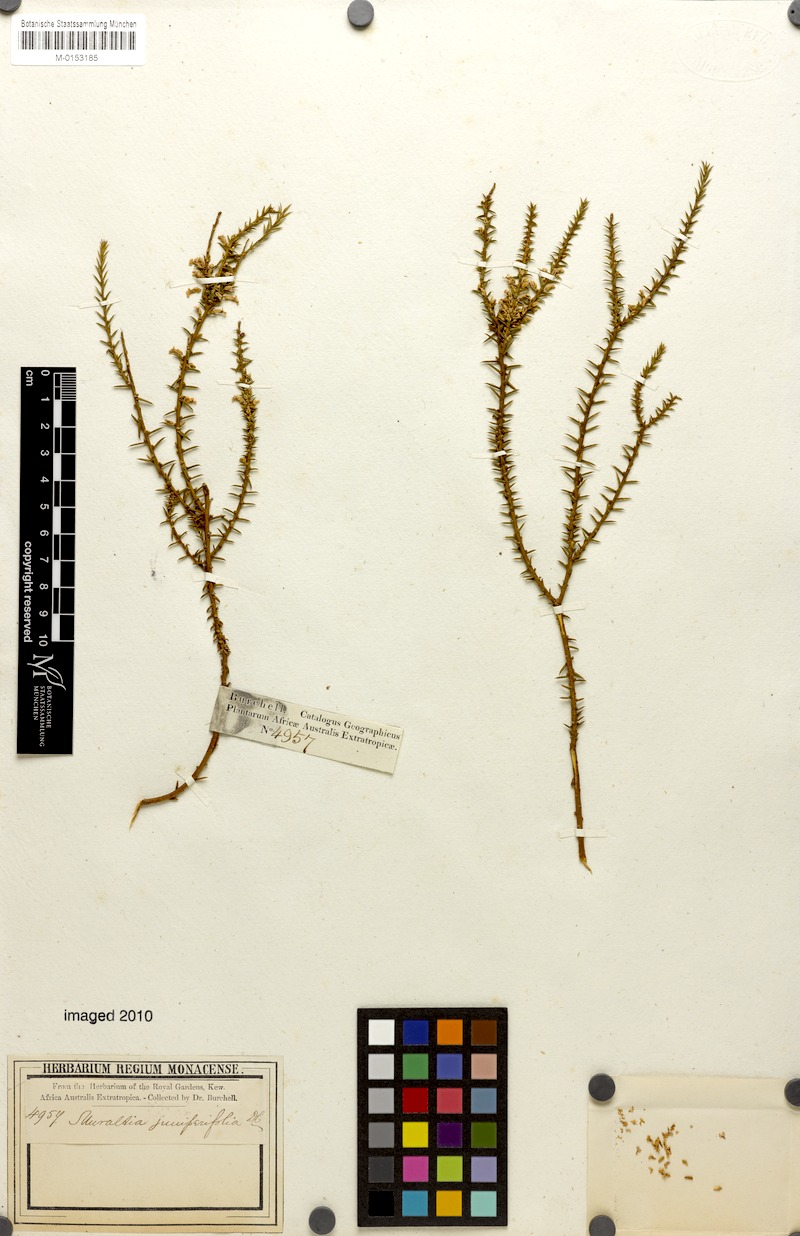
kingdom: Plantae
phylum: Tracheophyta
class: Magnoliopsida
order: Fabales
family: Polygalaceae
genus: Muraltia
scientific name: Muraltia juniperifolia
